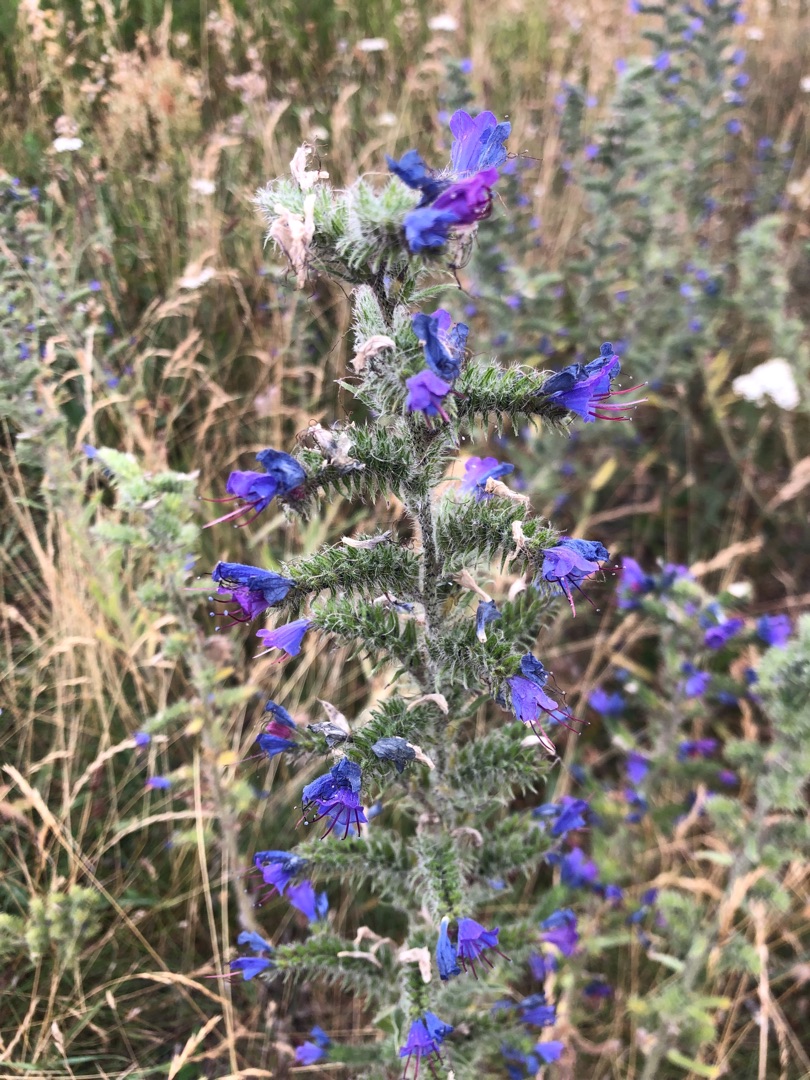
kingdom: Plantae
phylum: Tracheophyta
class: Magnoliopsida
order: Boraginales
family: Boraginaceae
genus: Echium
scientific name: Echium vulgare
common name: Slangehoved
